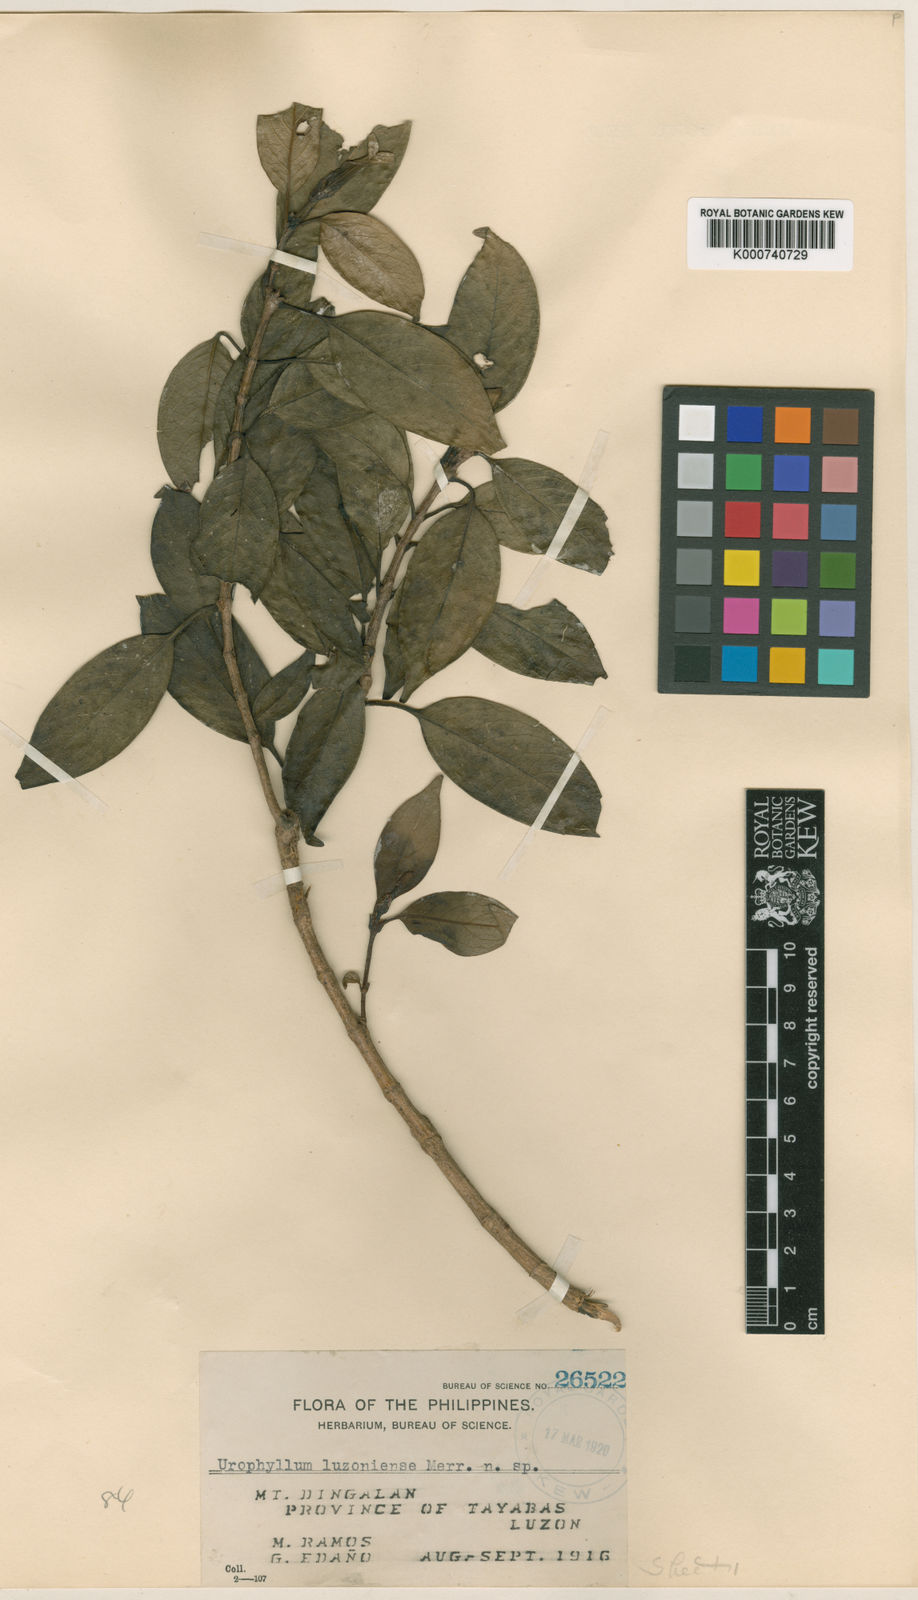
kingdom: Plantae
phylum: Tracheophyta
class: Magnoliopsida
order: Gentianales
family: Rubiaceae
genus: Antherostele
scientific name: Antherostele luzoniensis
